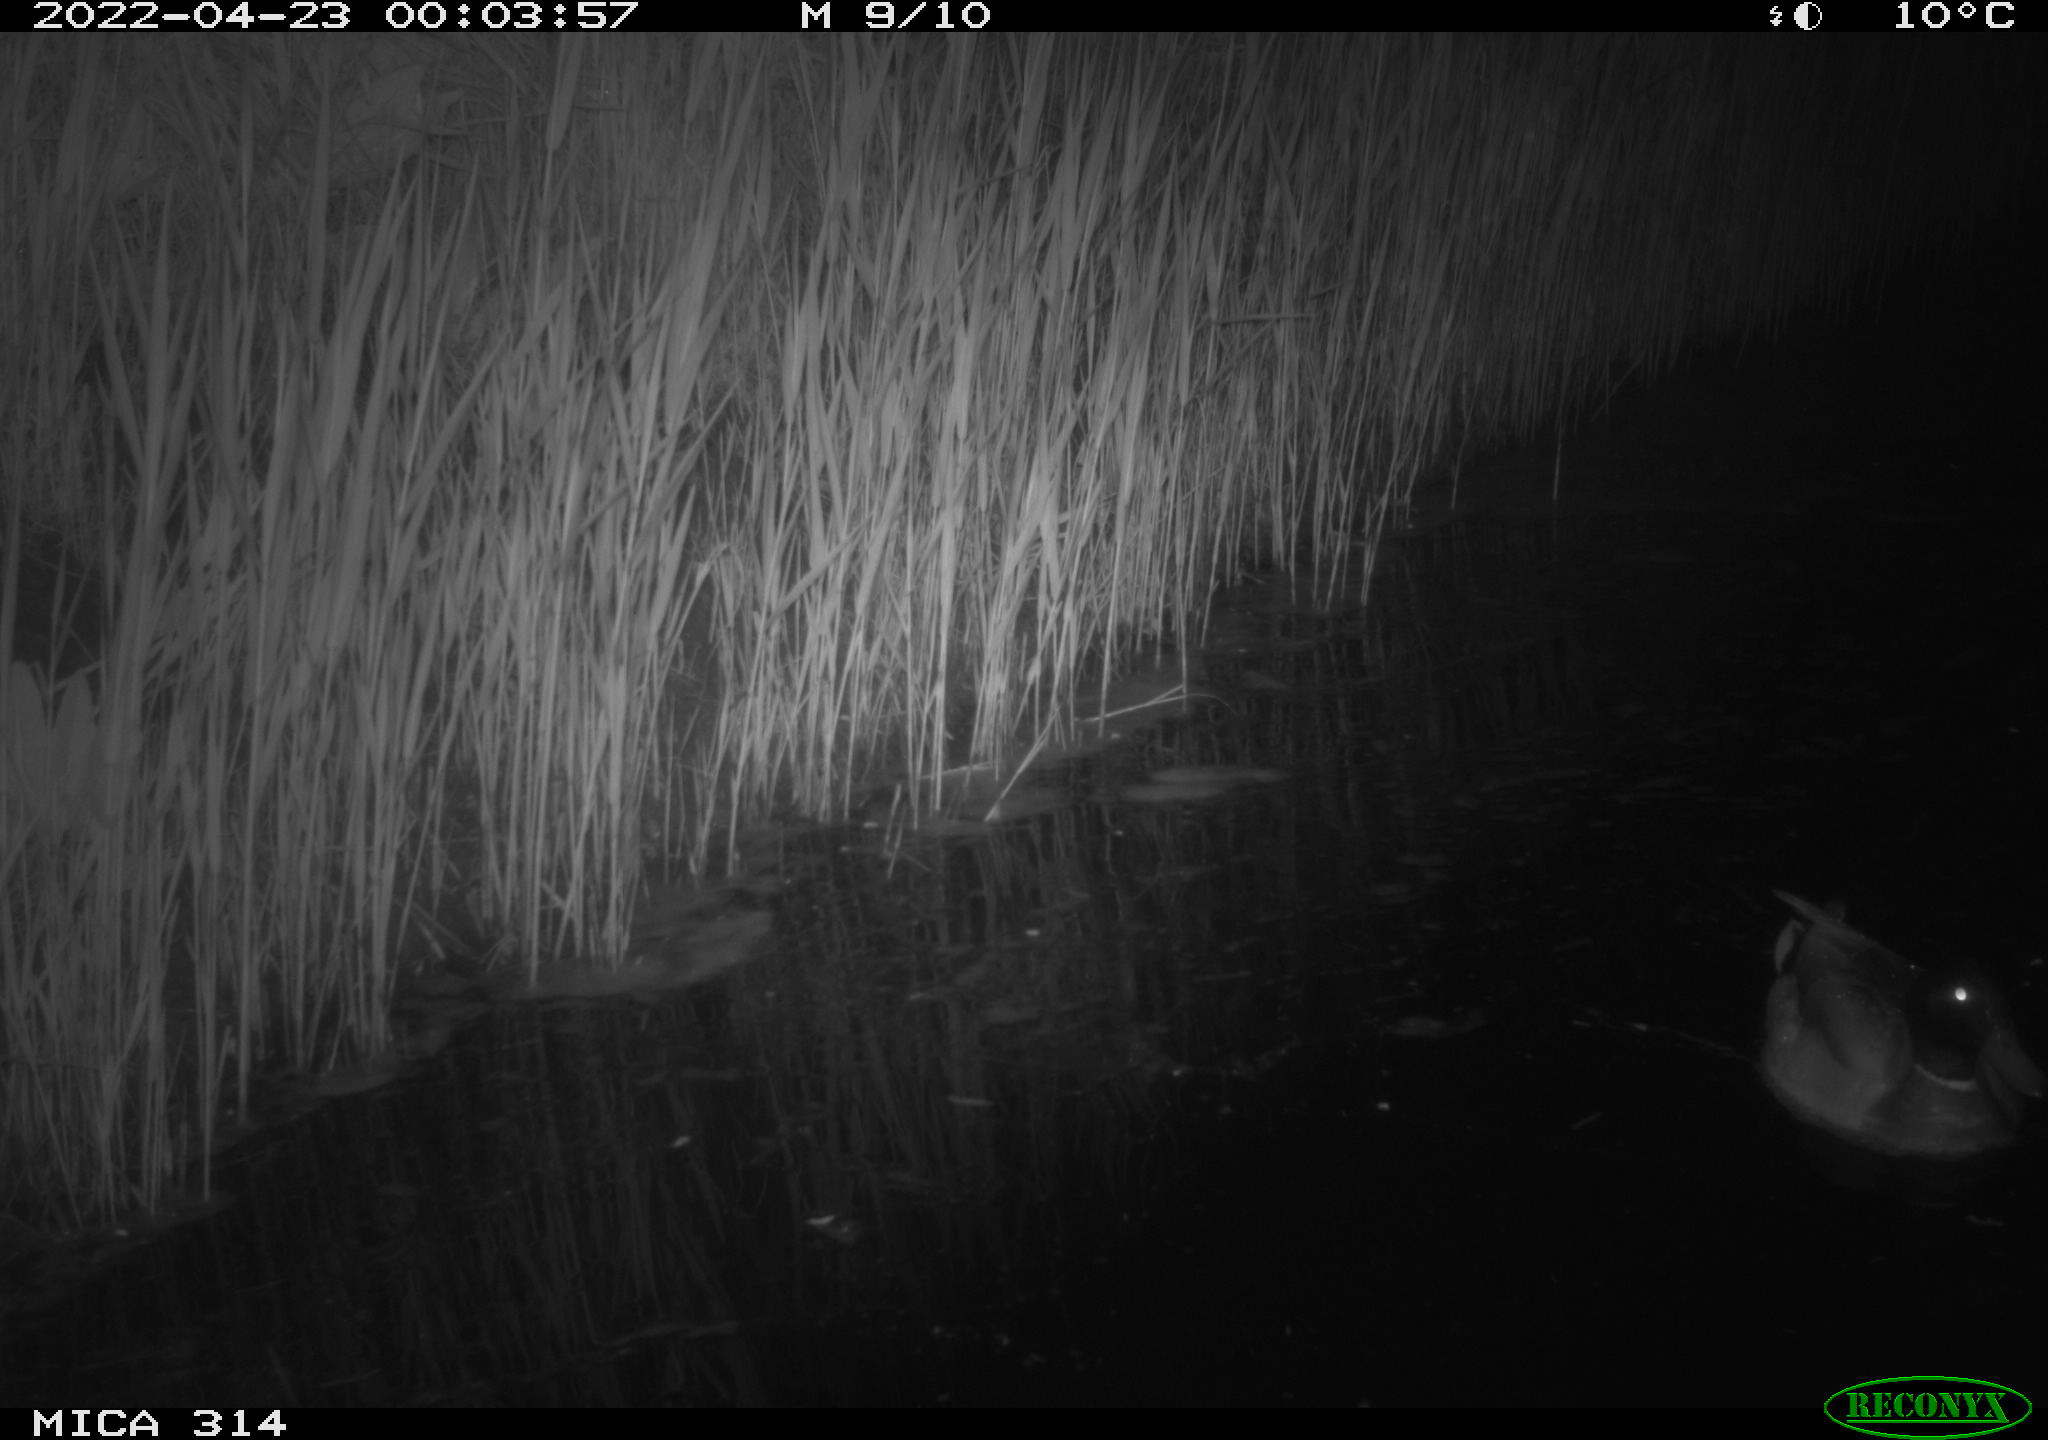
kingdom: Animalia
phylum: Chordata
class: Aves
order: Anseriformes
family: Anatidae
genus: Anas
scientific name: Anas platyrhynchos
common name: Mallard
